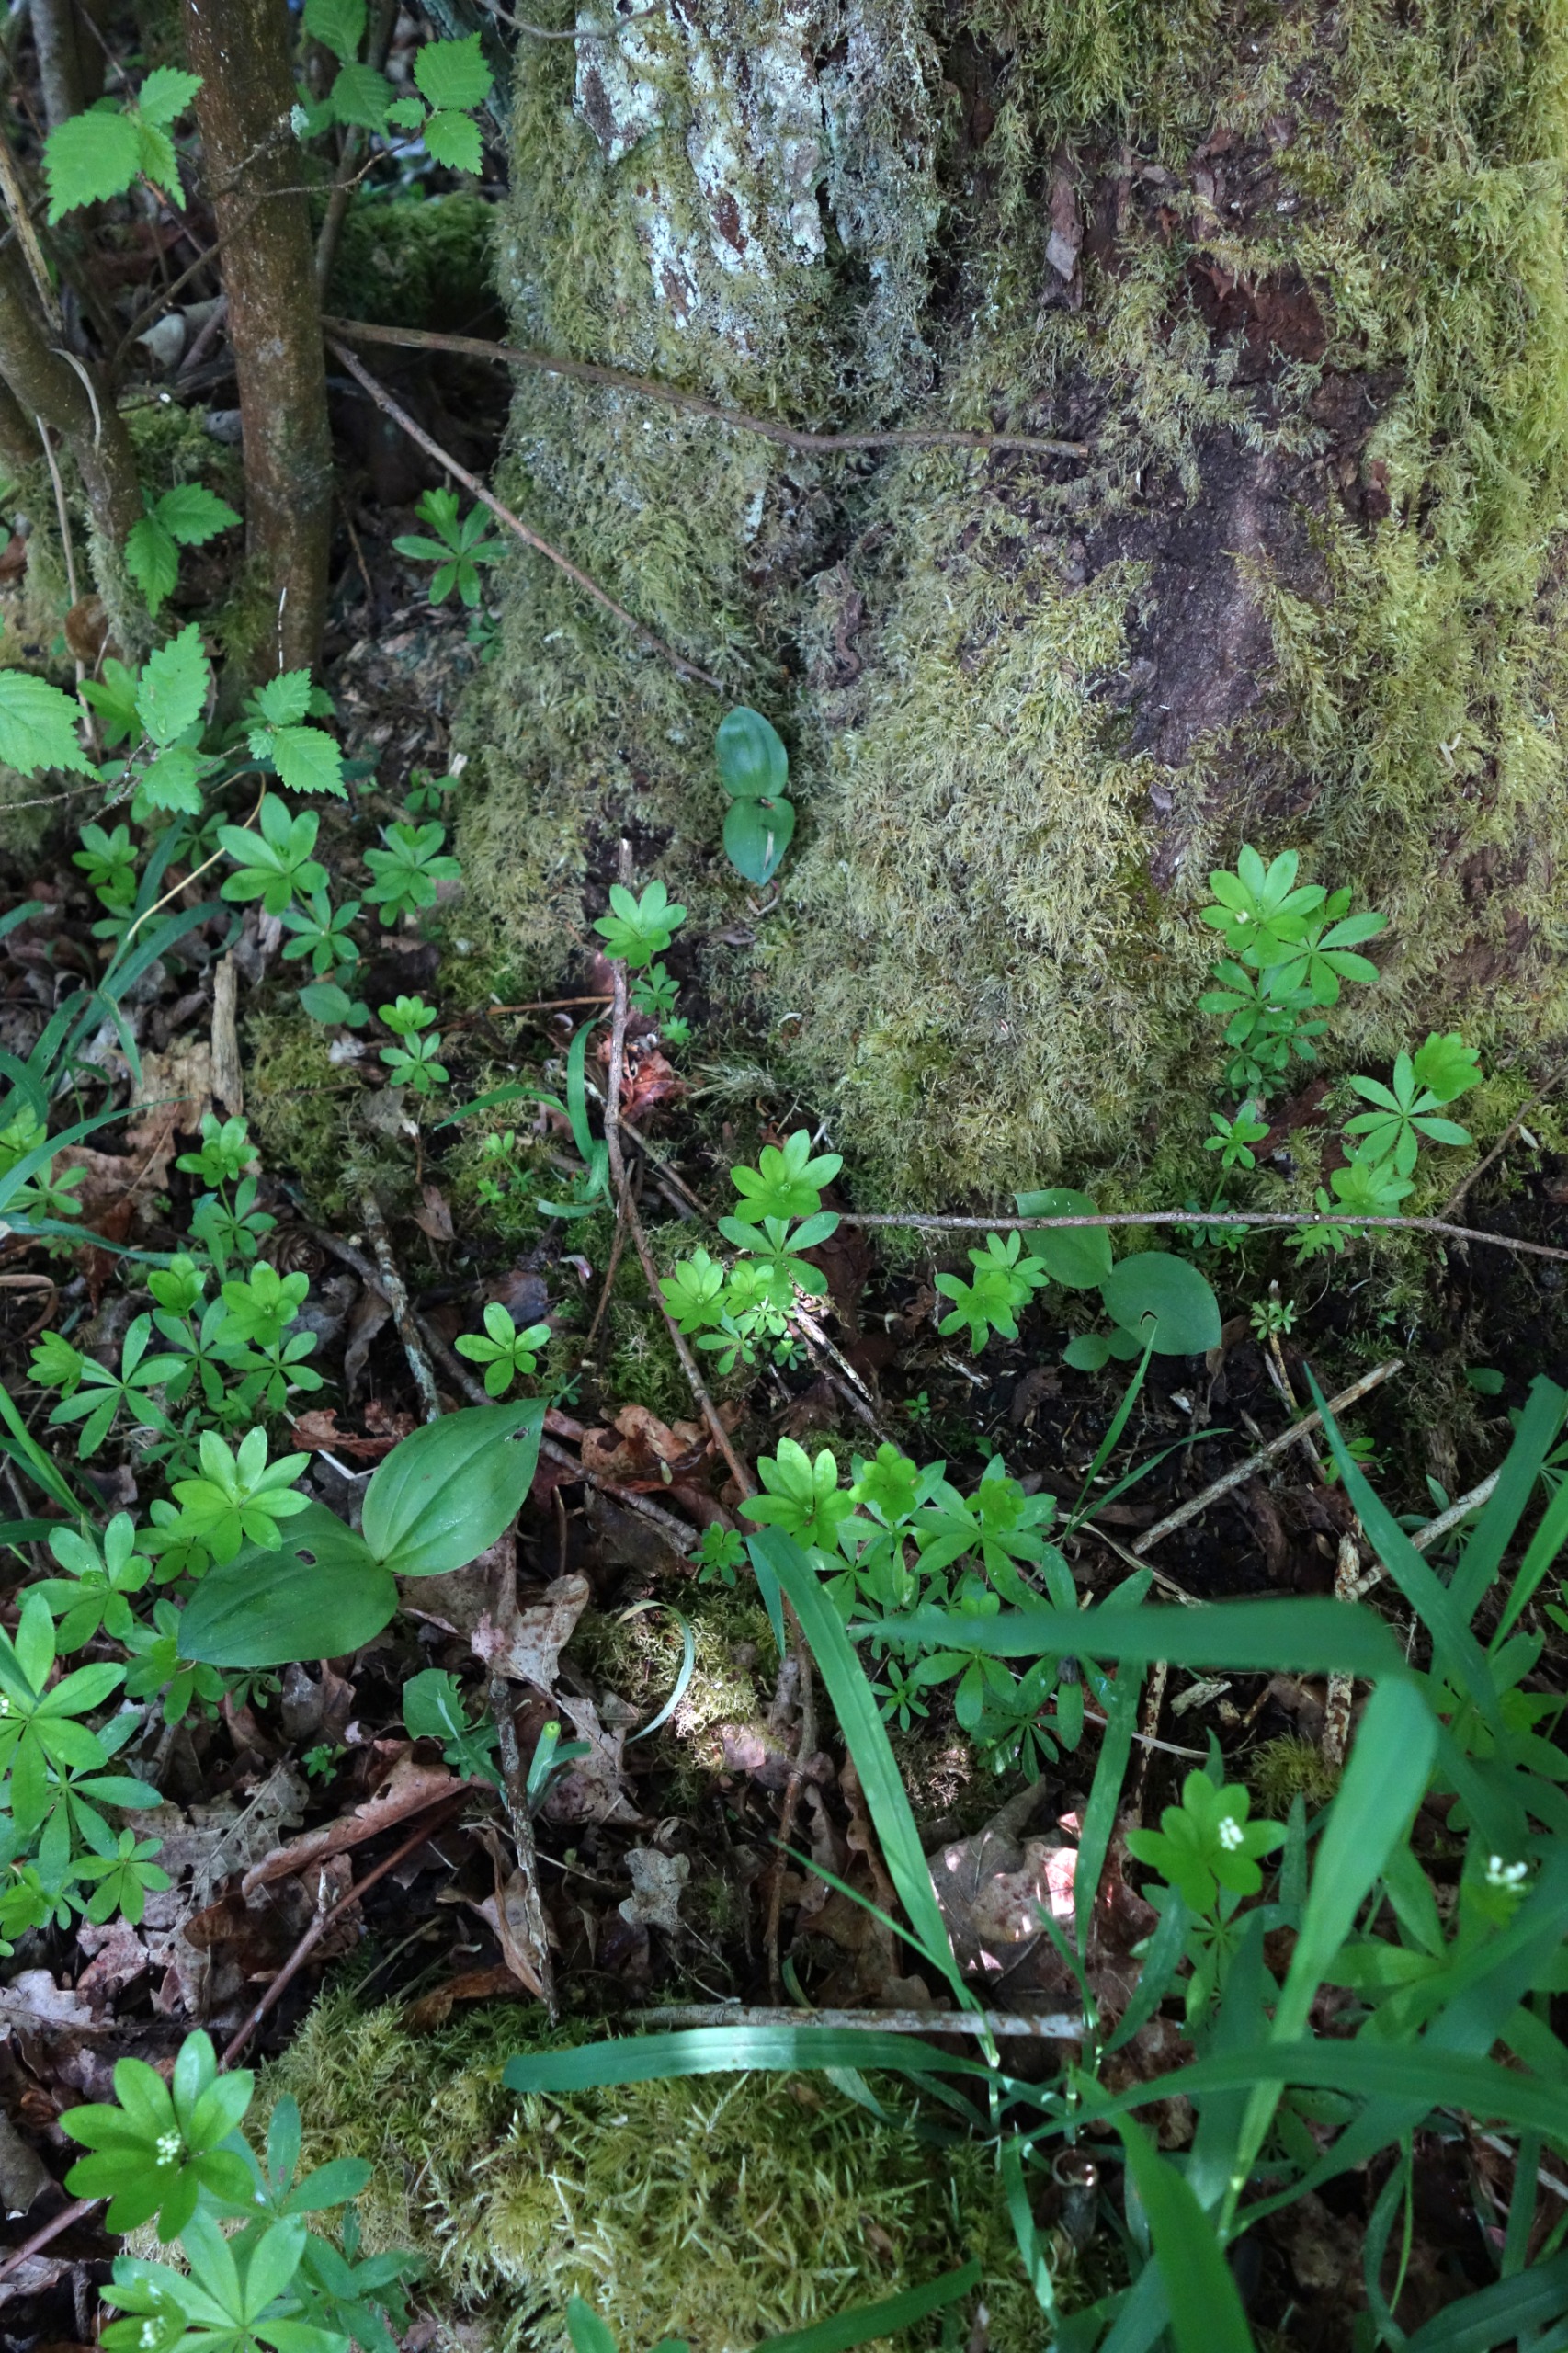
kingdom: Plantae
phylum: Tracheophyta
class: Liliopsida
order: Asparagales
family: Orchidaceae
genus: Neottia
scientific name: Neottia ovata
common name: Ægbladet fliglæbe
